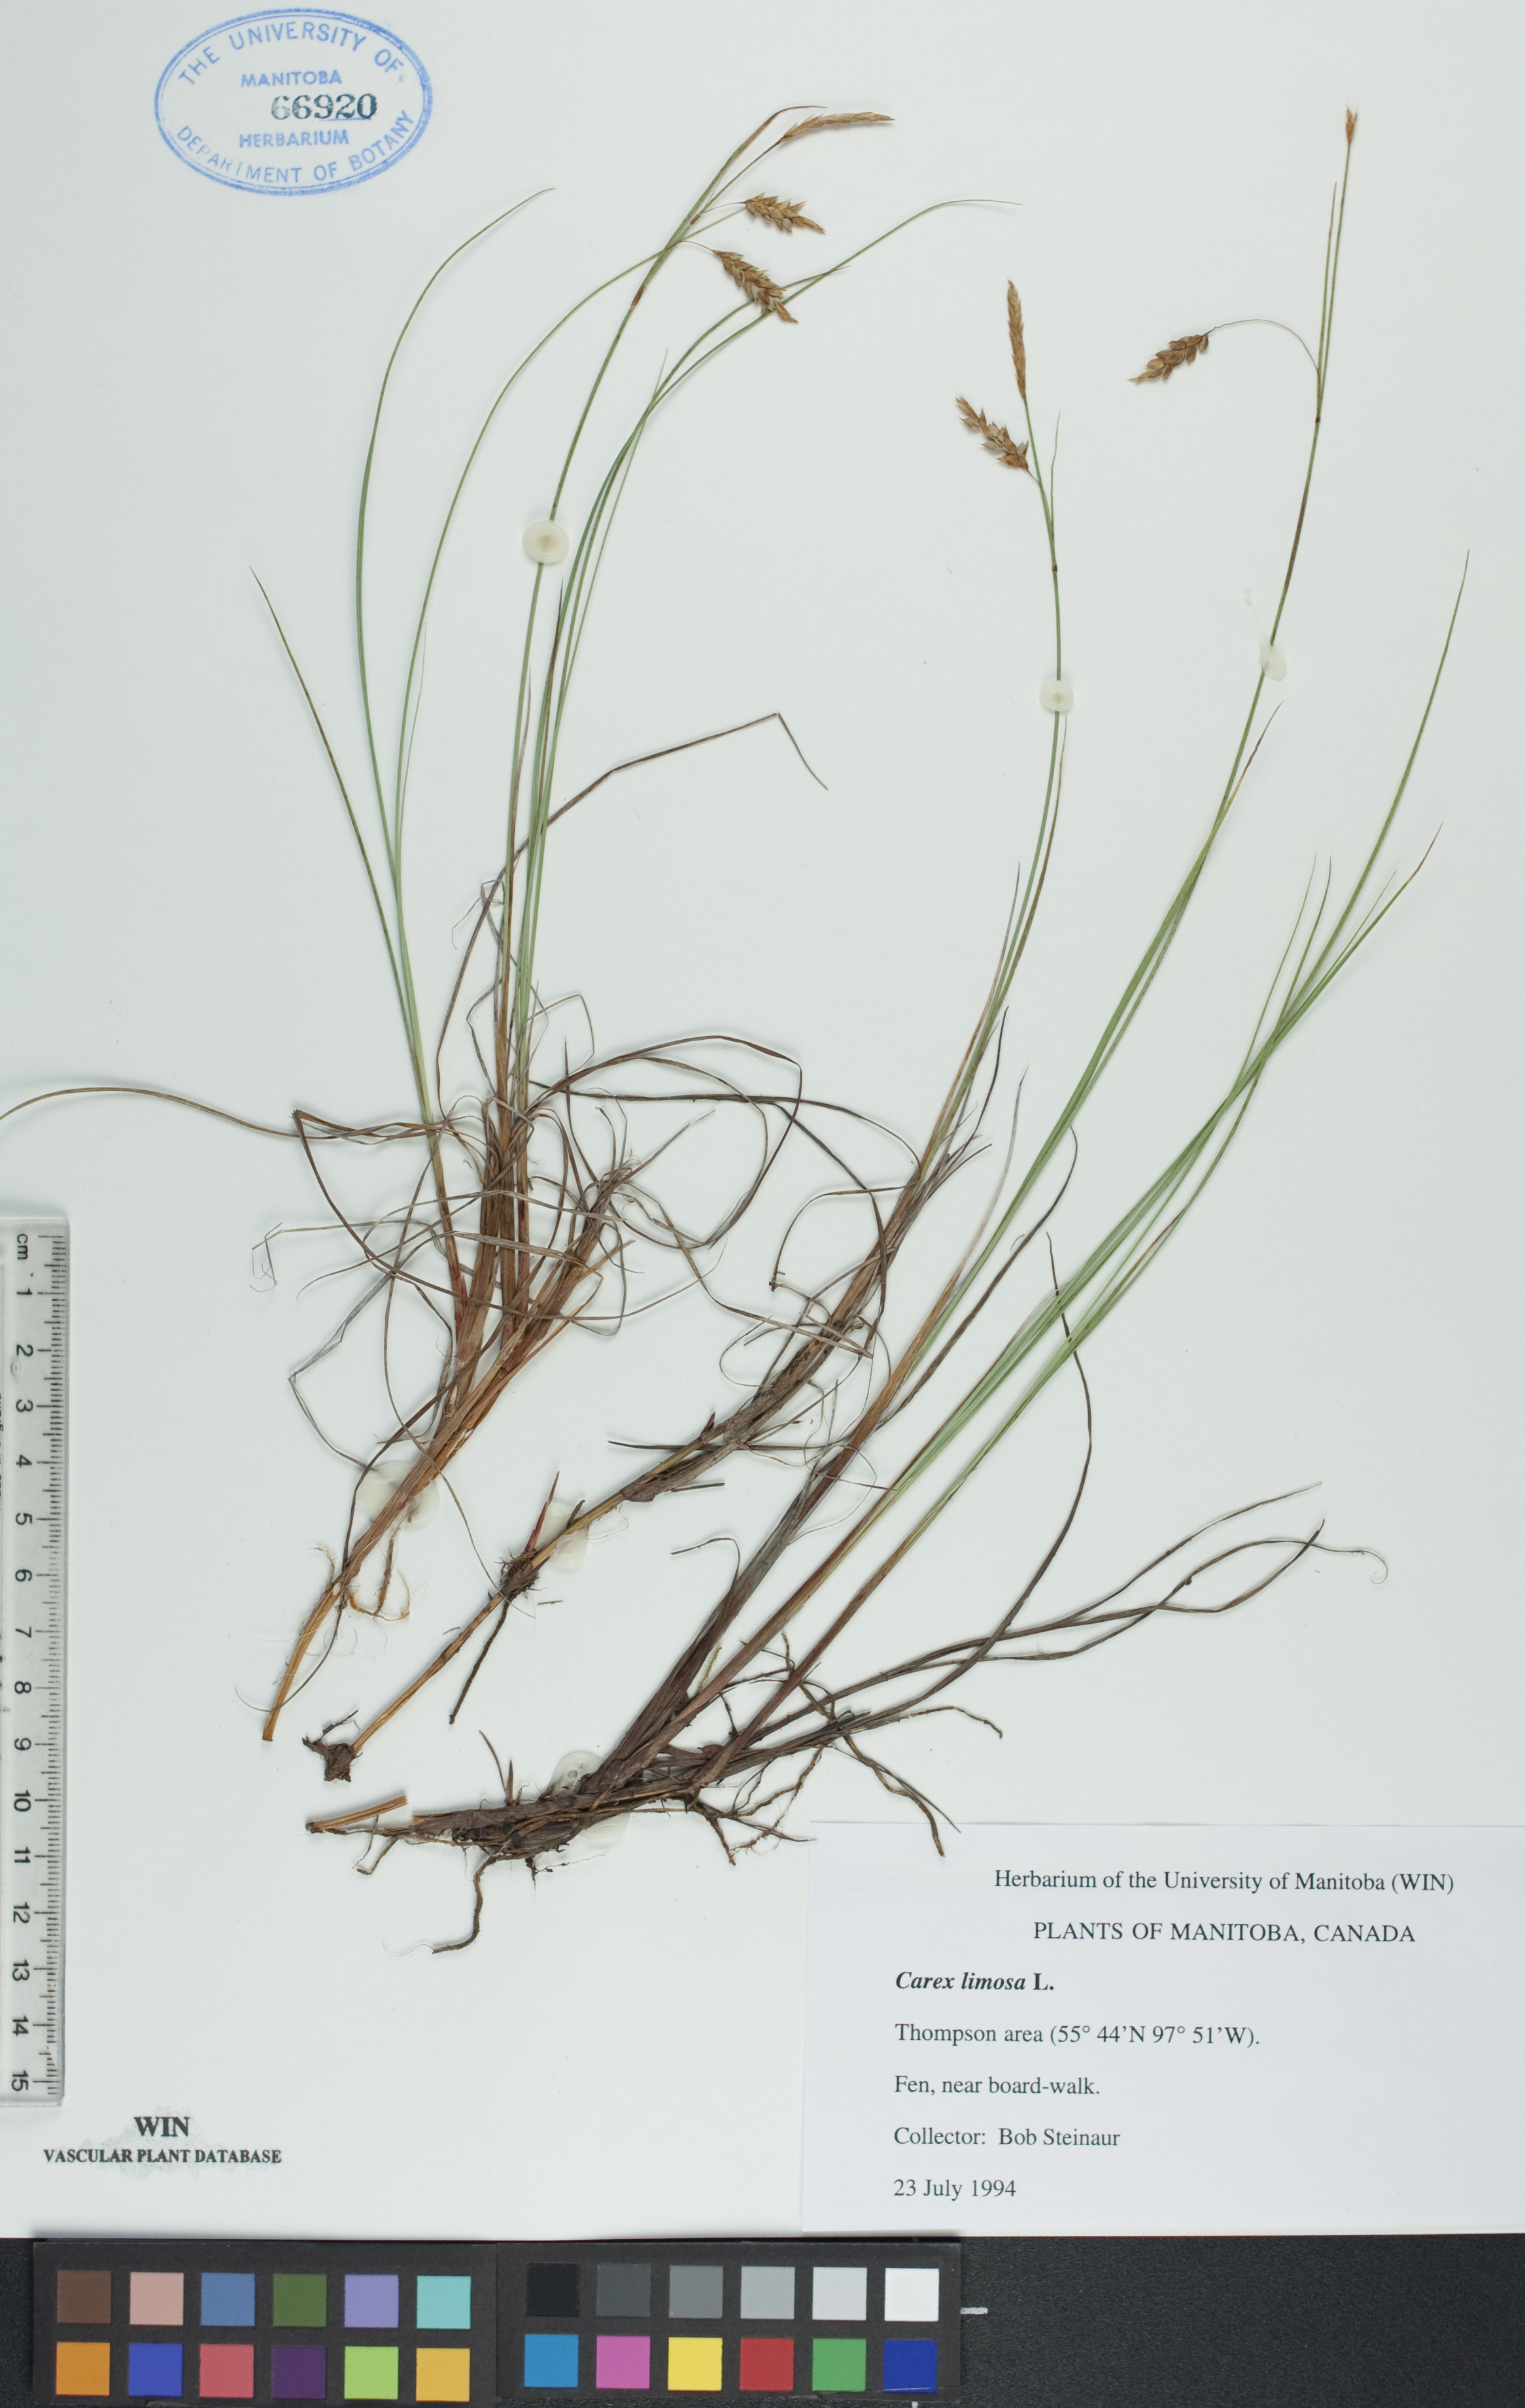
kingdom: Plantae
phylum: Tracheophyta
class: Liliopsida
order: Poales
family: Cyperaceae
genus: Carex
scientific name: Carex limosa
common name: Bog sedge
